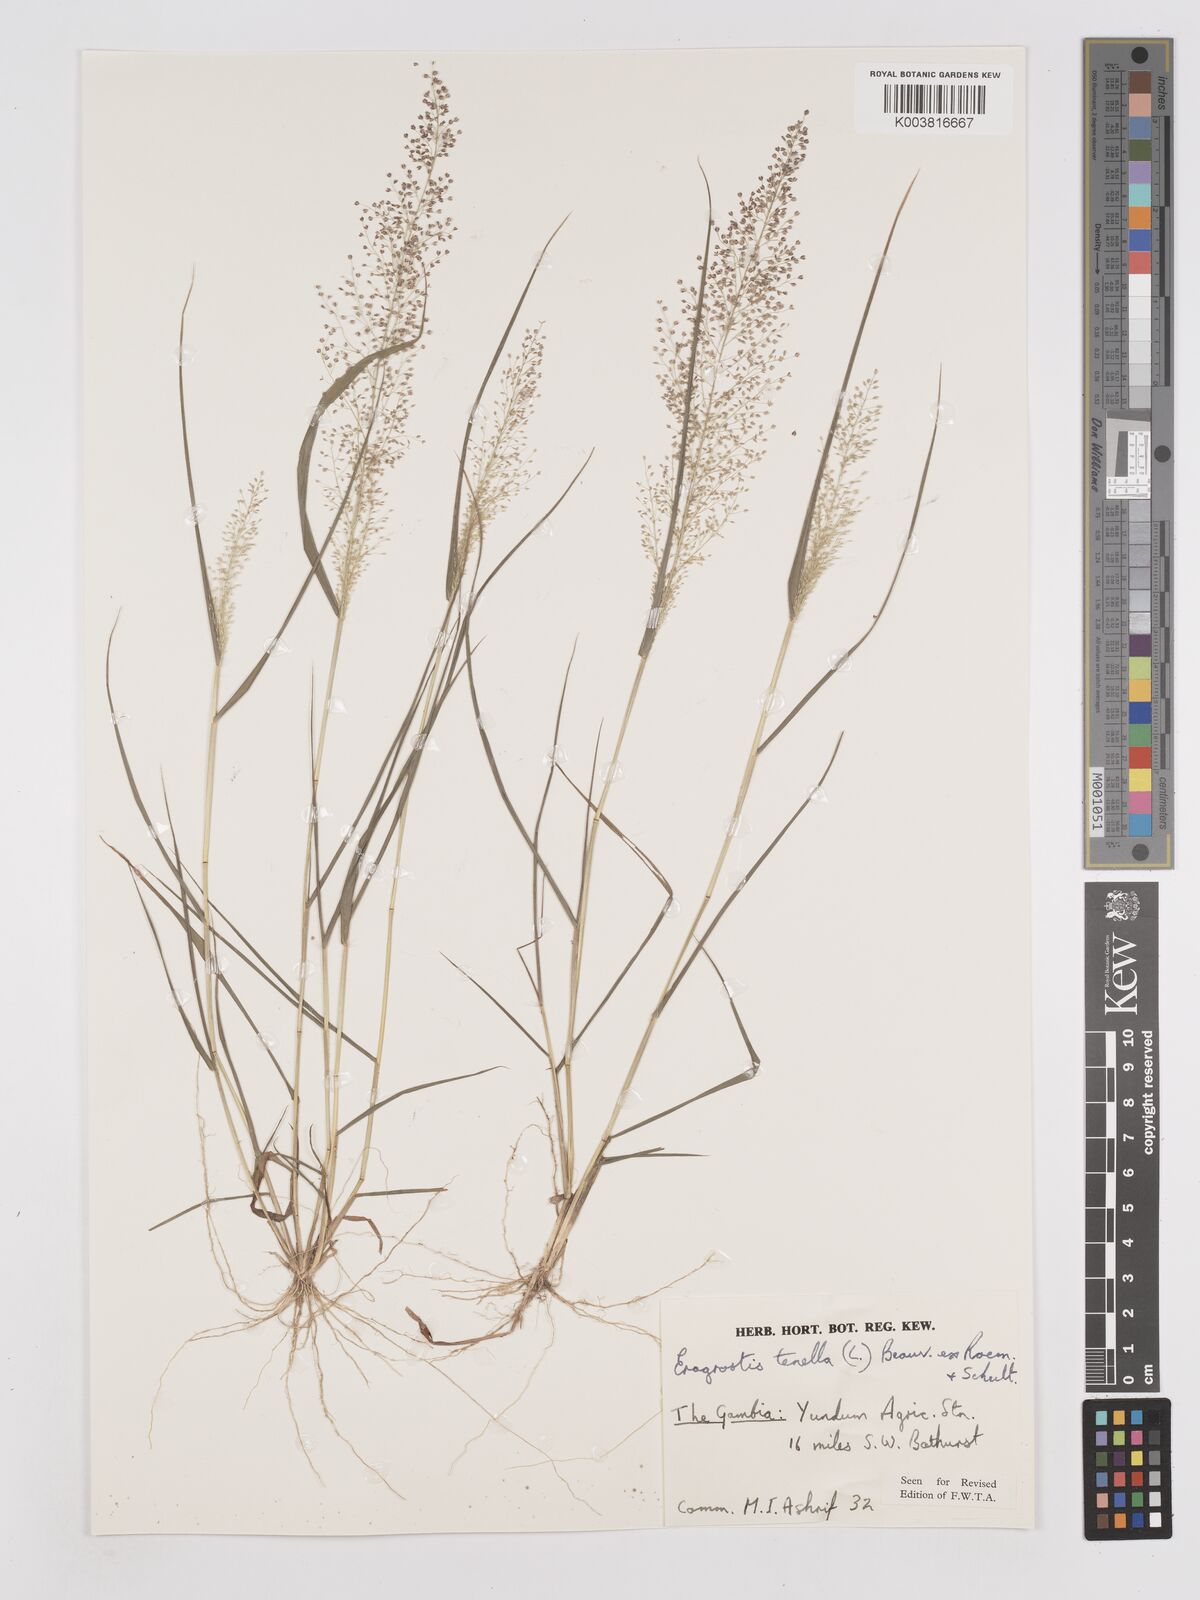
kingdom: Plantae
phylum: Tracheophyta
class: Liliopsida
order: Poales
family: Poaceae
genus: Eragrostis
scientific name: Eragrostis tenella
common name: Japanese lovegrass
